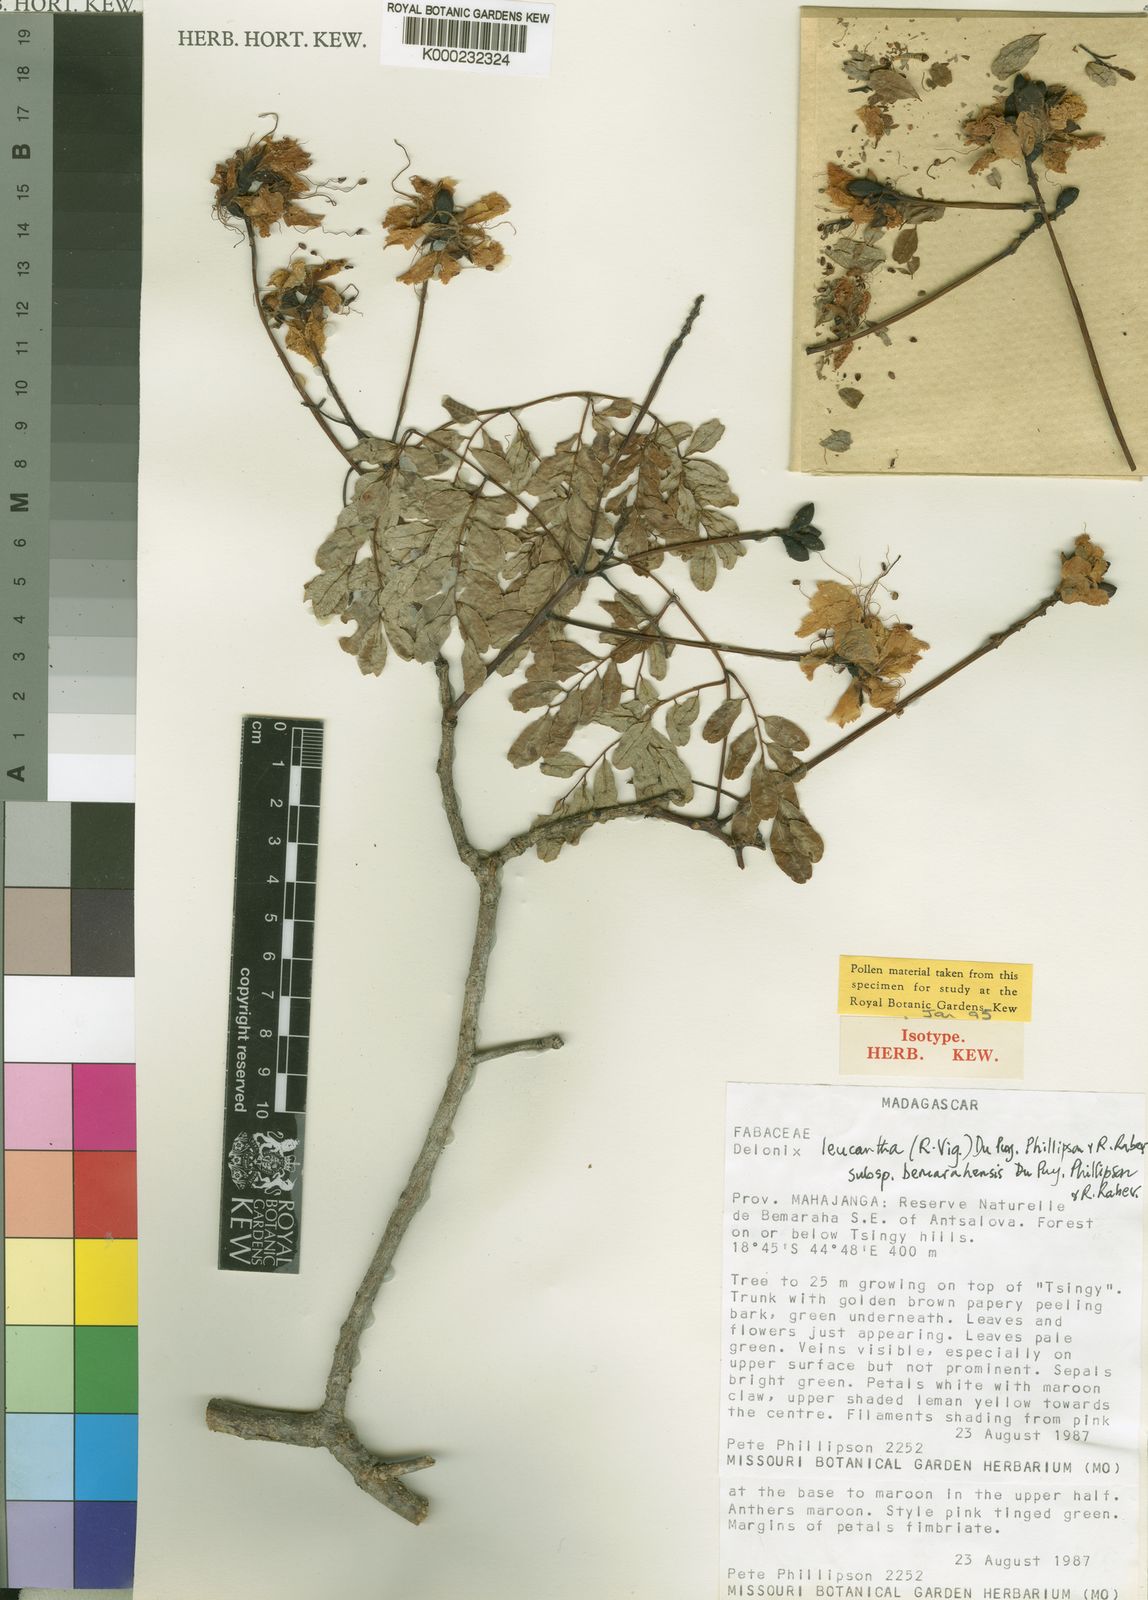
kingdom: Plantae
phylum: Tracheophyta
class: Magnoliopsida
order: Fabales
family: Fabaceae
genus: Delonix
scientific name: Delonix
